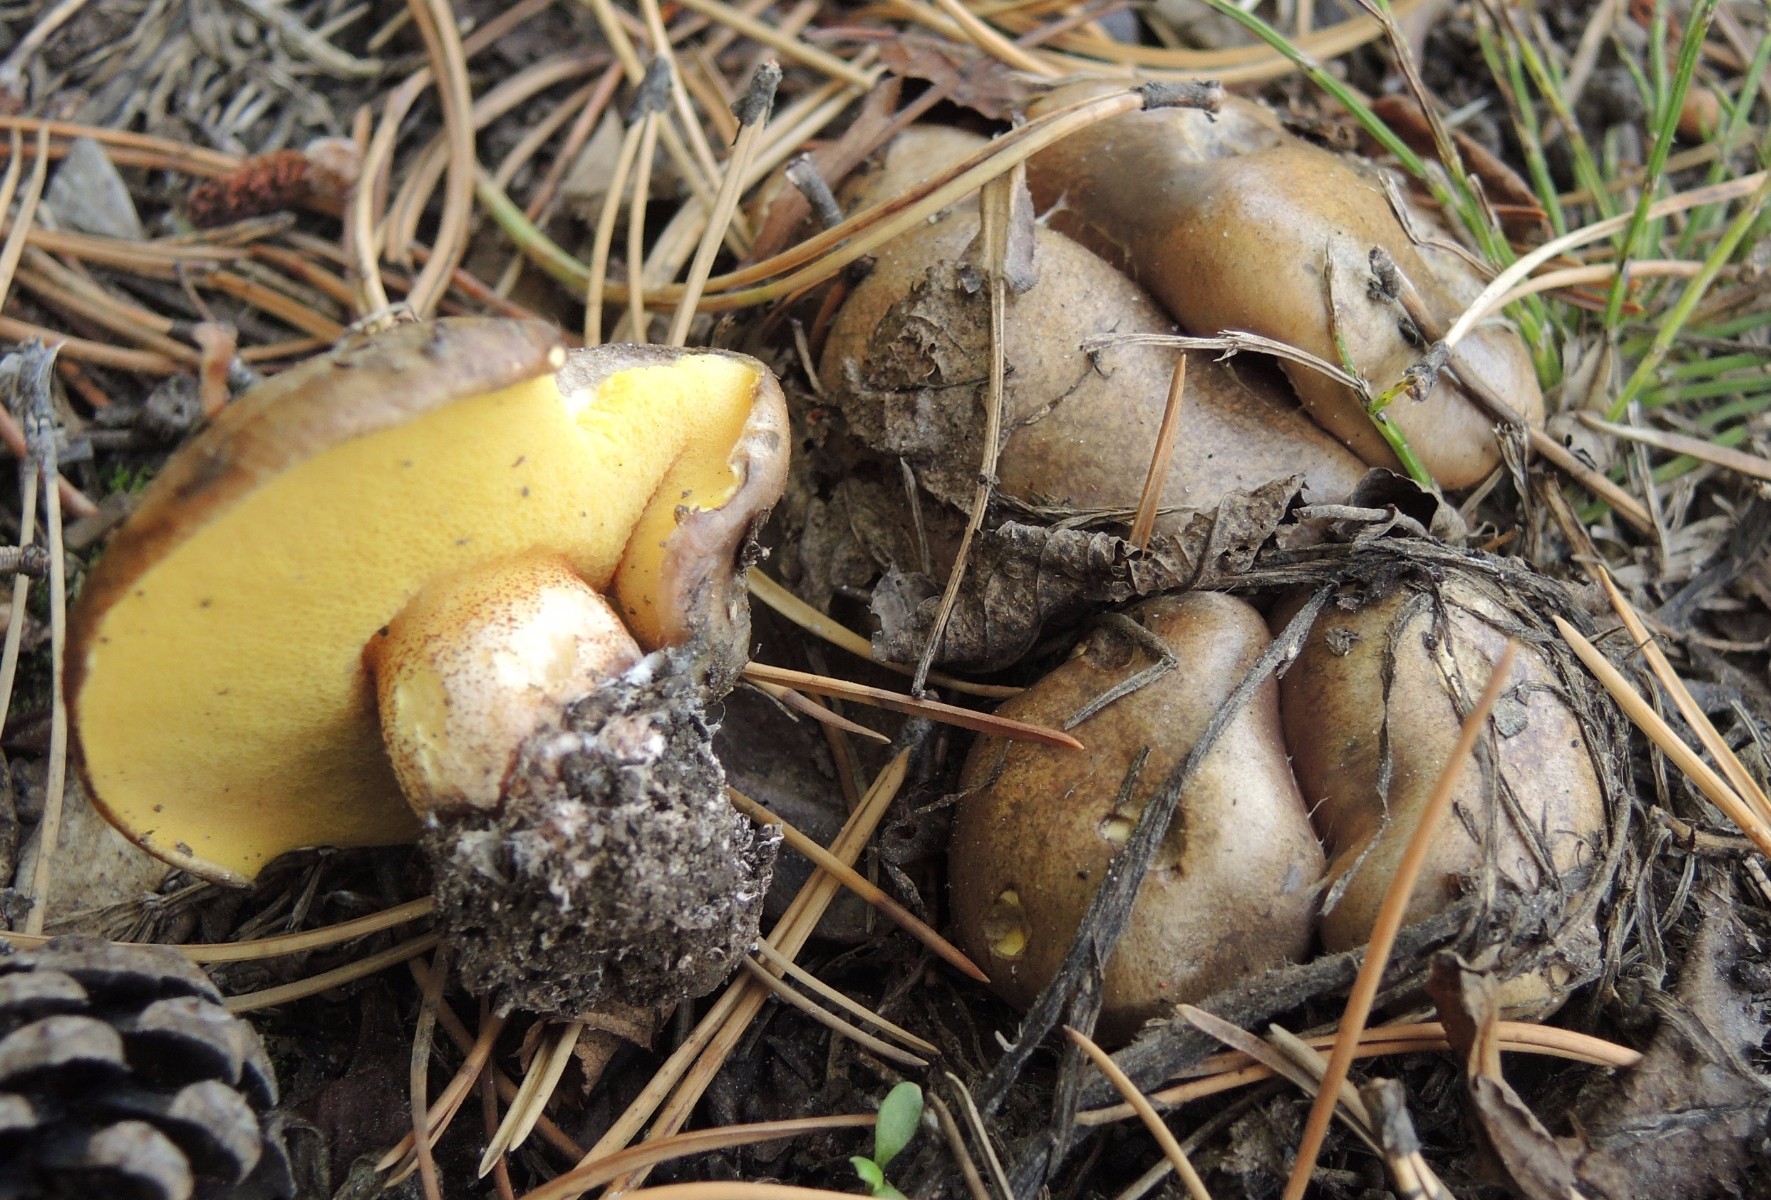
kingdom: Fungi
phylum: Basidiomycota
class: Agaricomycetes
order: Boletales
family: Suillaceae
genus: Suillus
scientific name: Suillus collinitus
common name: rosafodet slimrørhat
